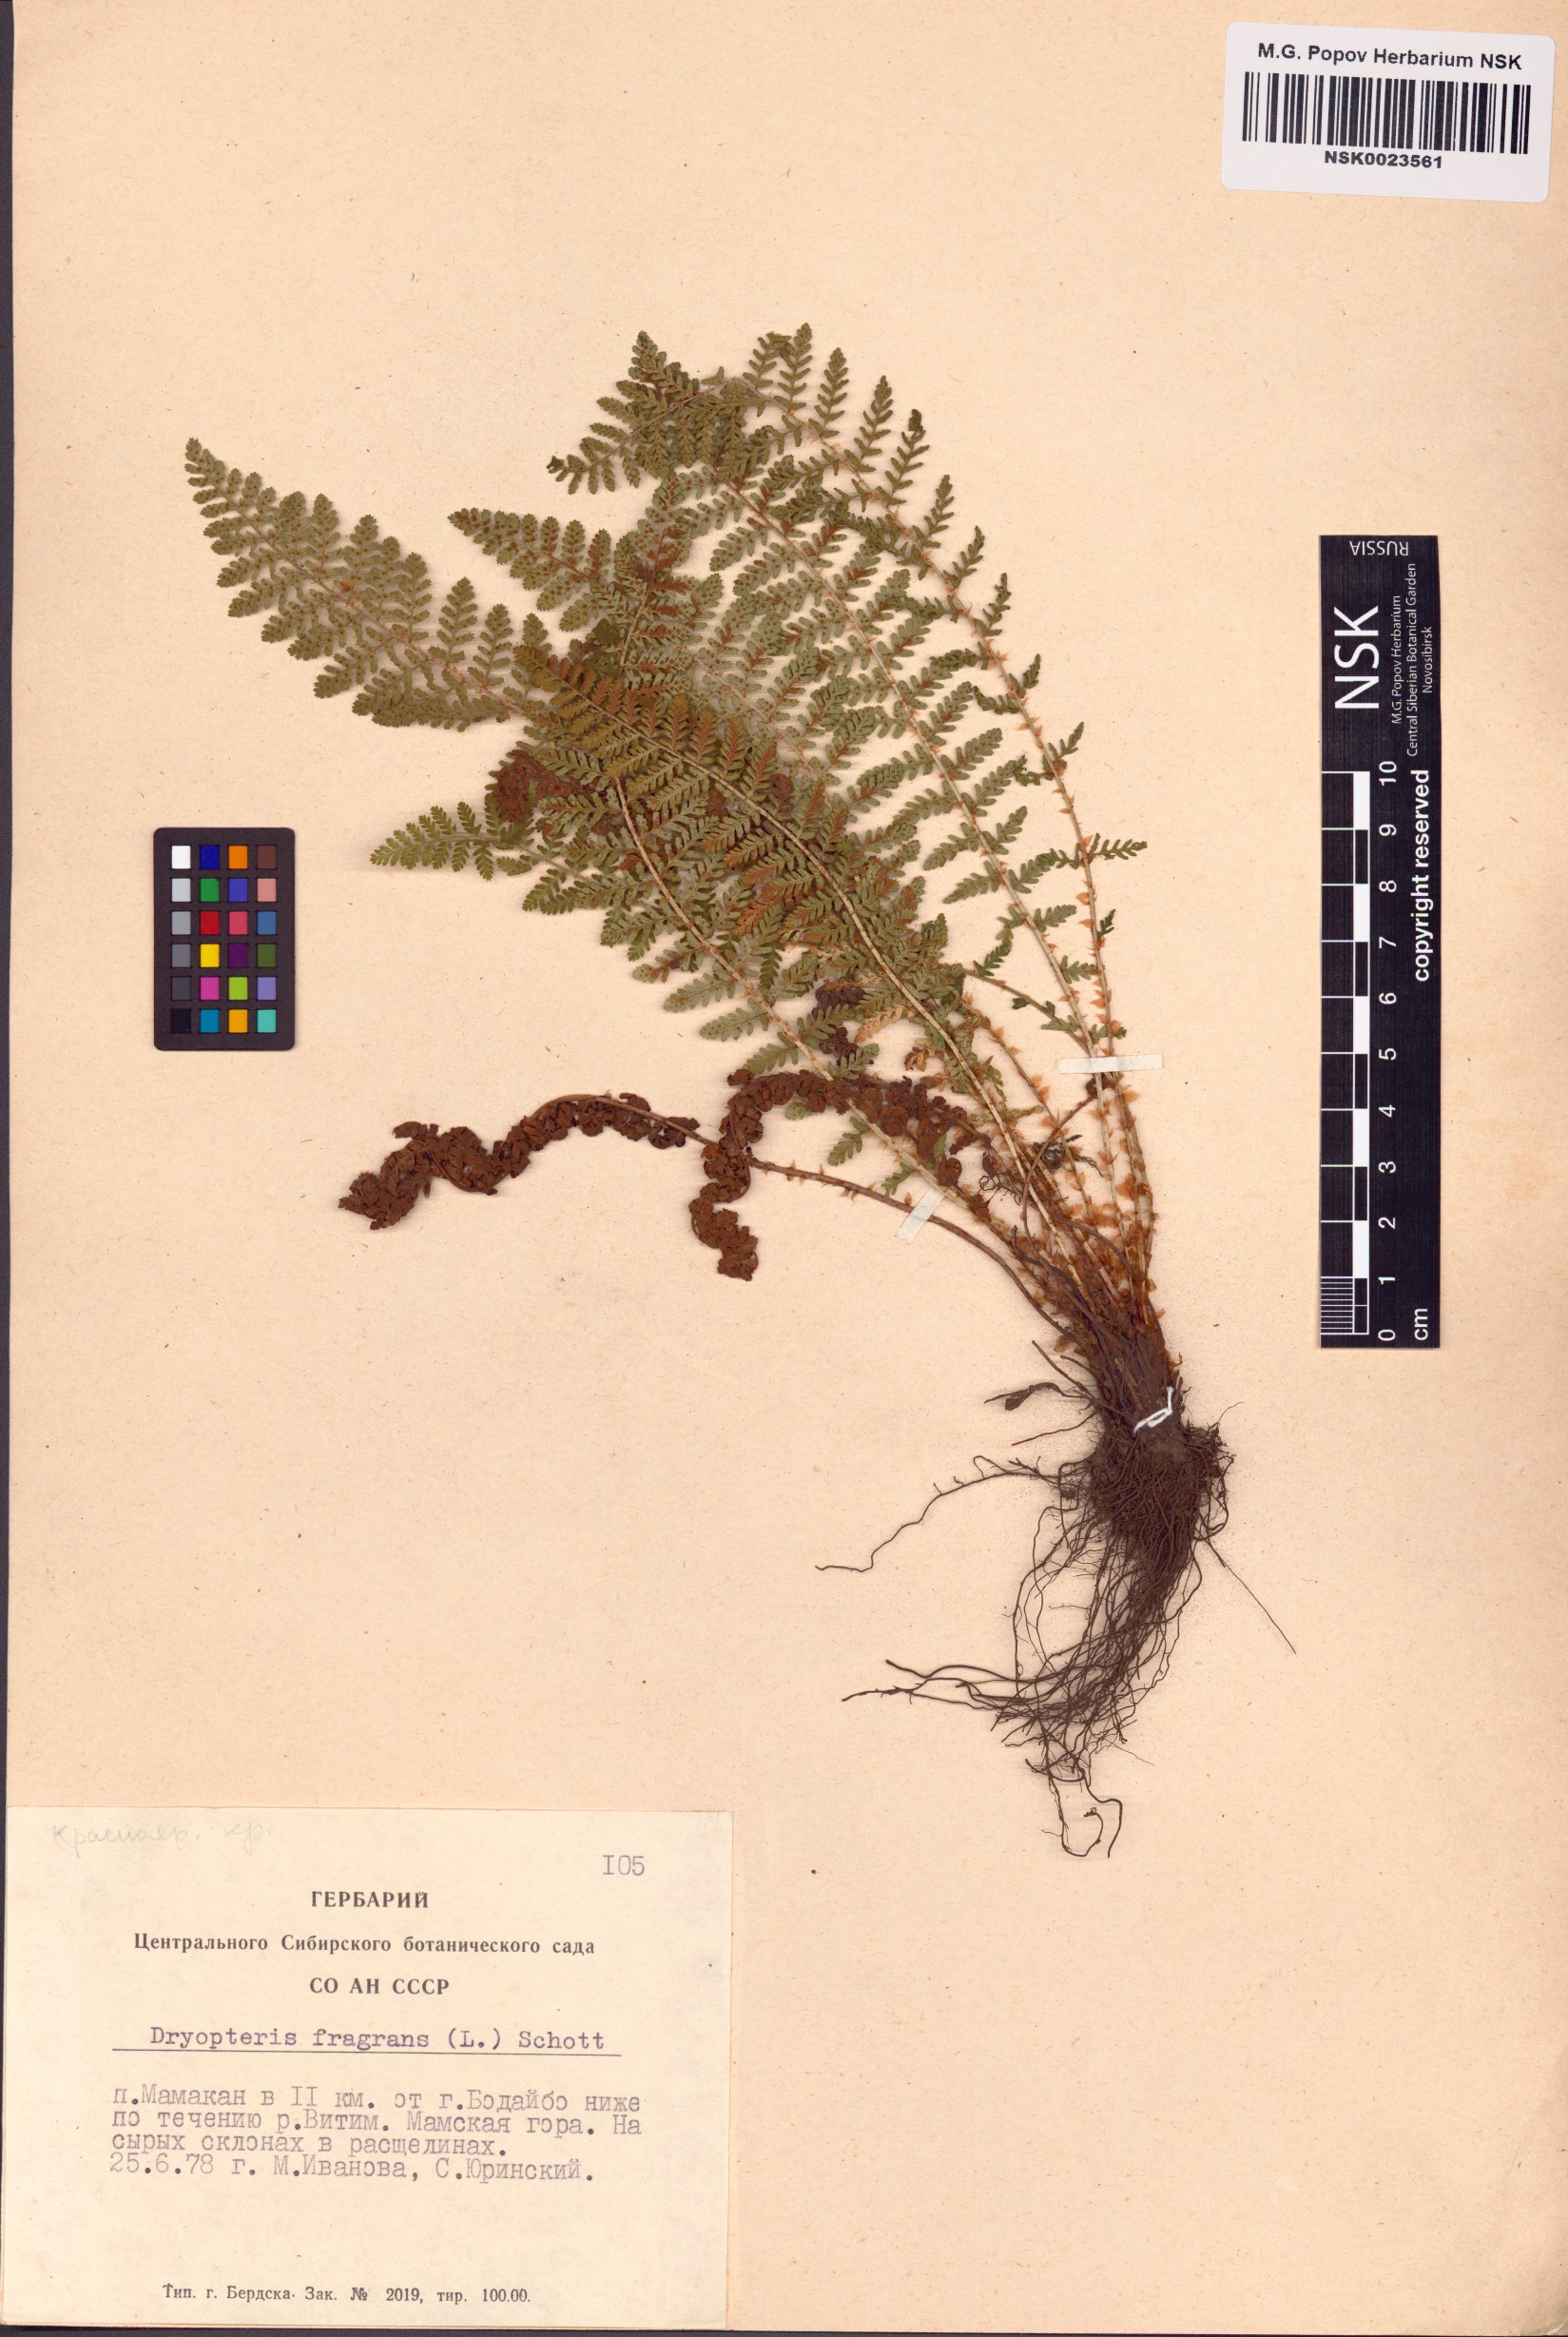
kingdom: Plantae
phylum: Tracheophyta
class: Polypodiopsida
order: Polypodiales
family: Dryopteridaceae
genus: Dryopteris
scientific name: Dryopteris fragrans
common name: Fragrant wood fern
